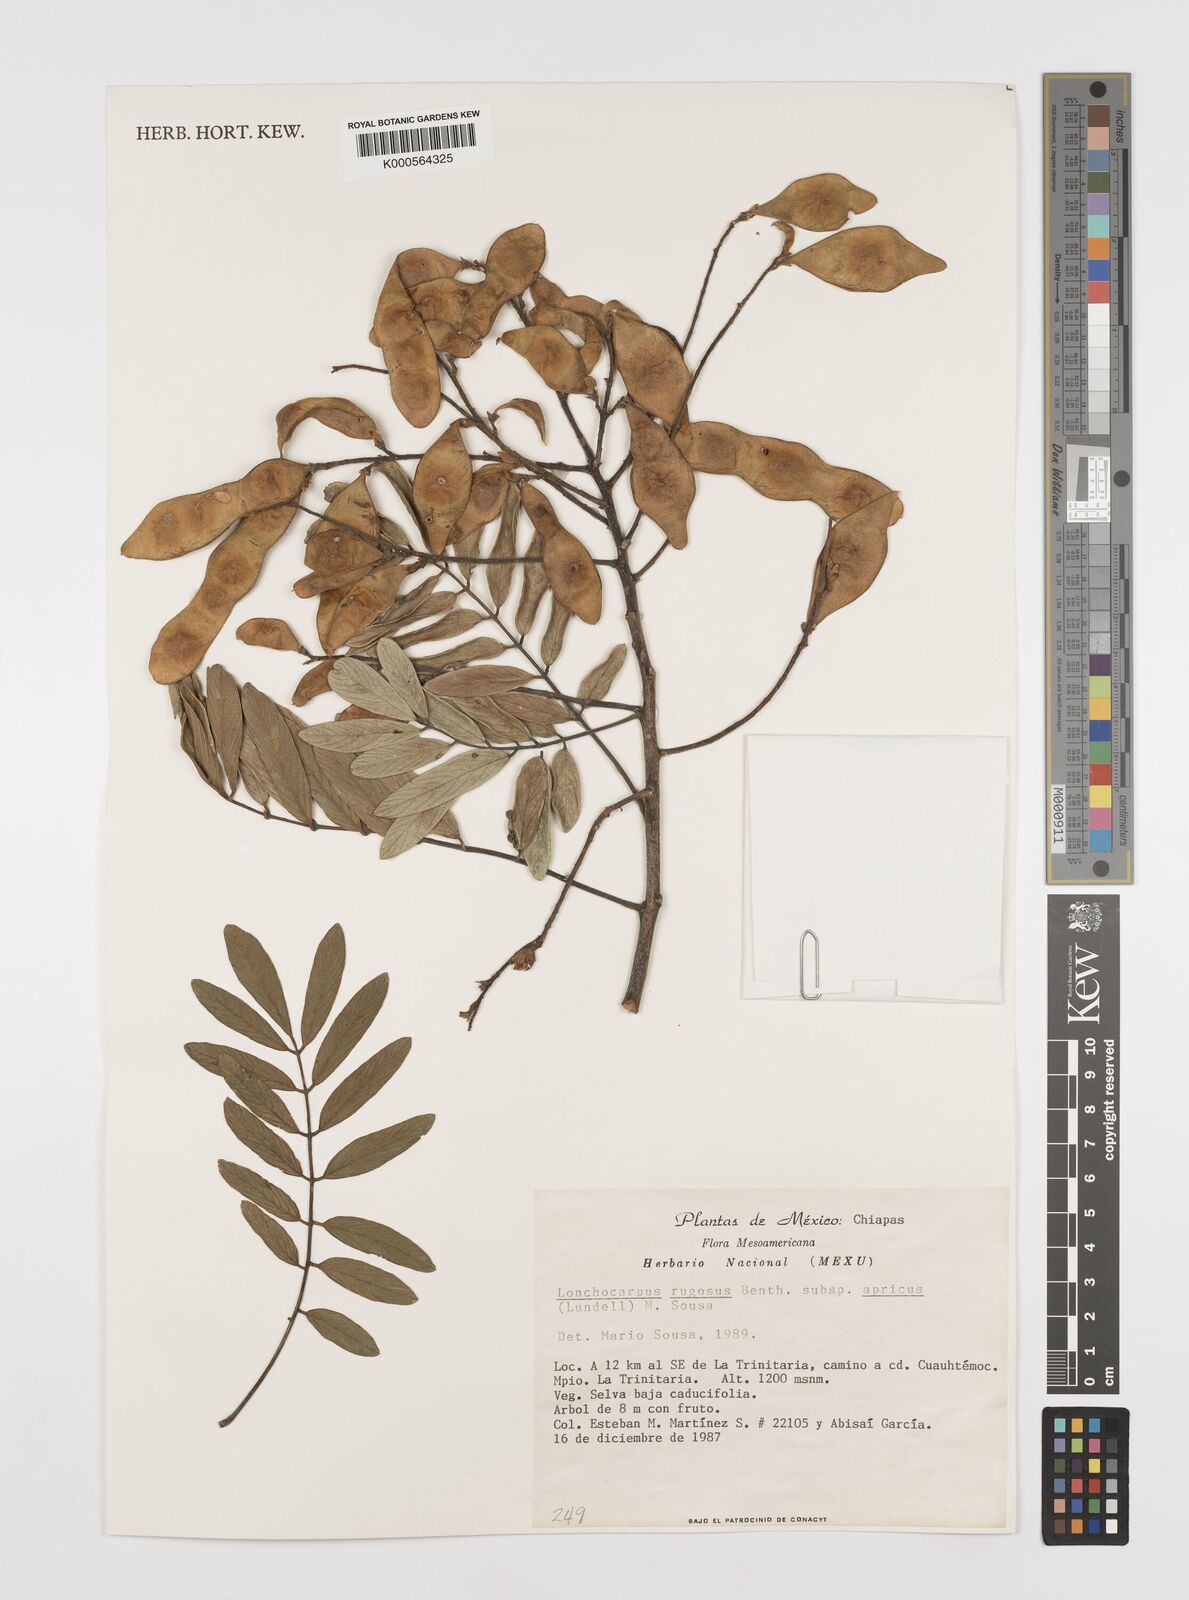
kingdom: Plantae
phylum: Tracheophyta
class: Magnoliopsida
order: Fabales
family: Fabaceae
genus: Lonchocarpus
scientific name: Lonchocarpus rugosus
